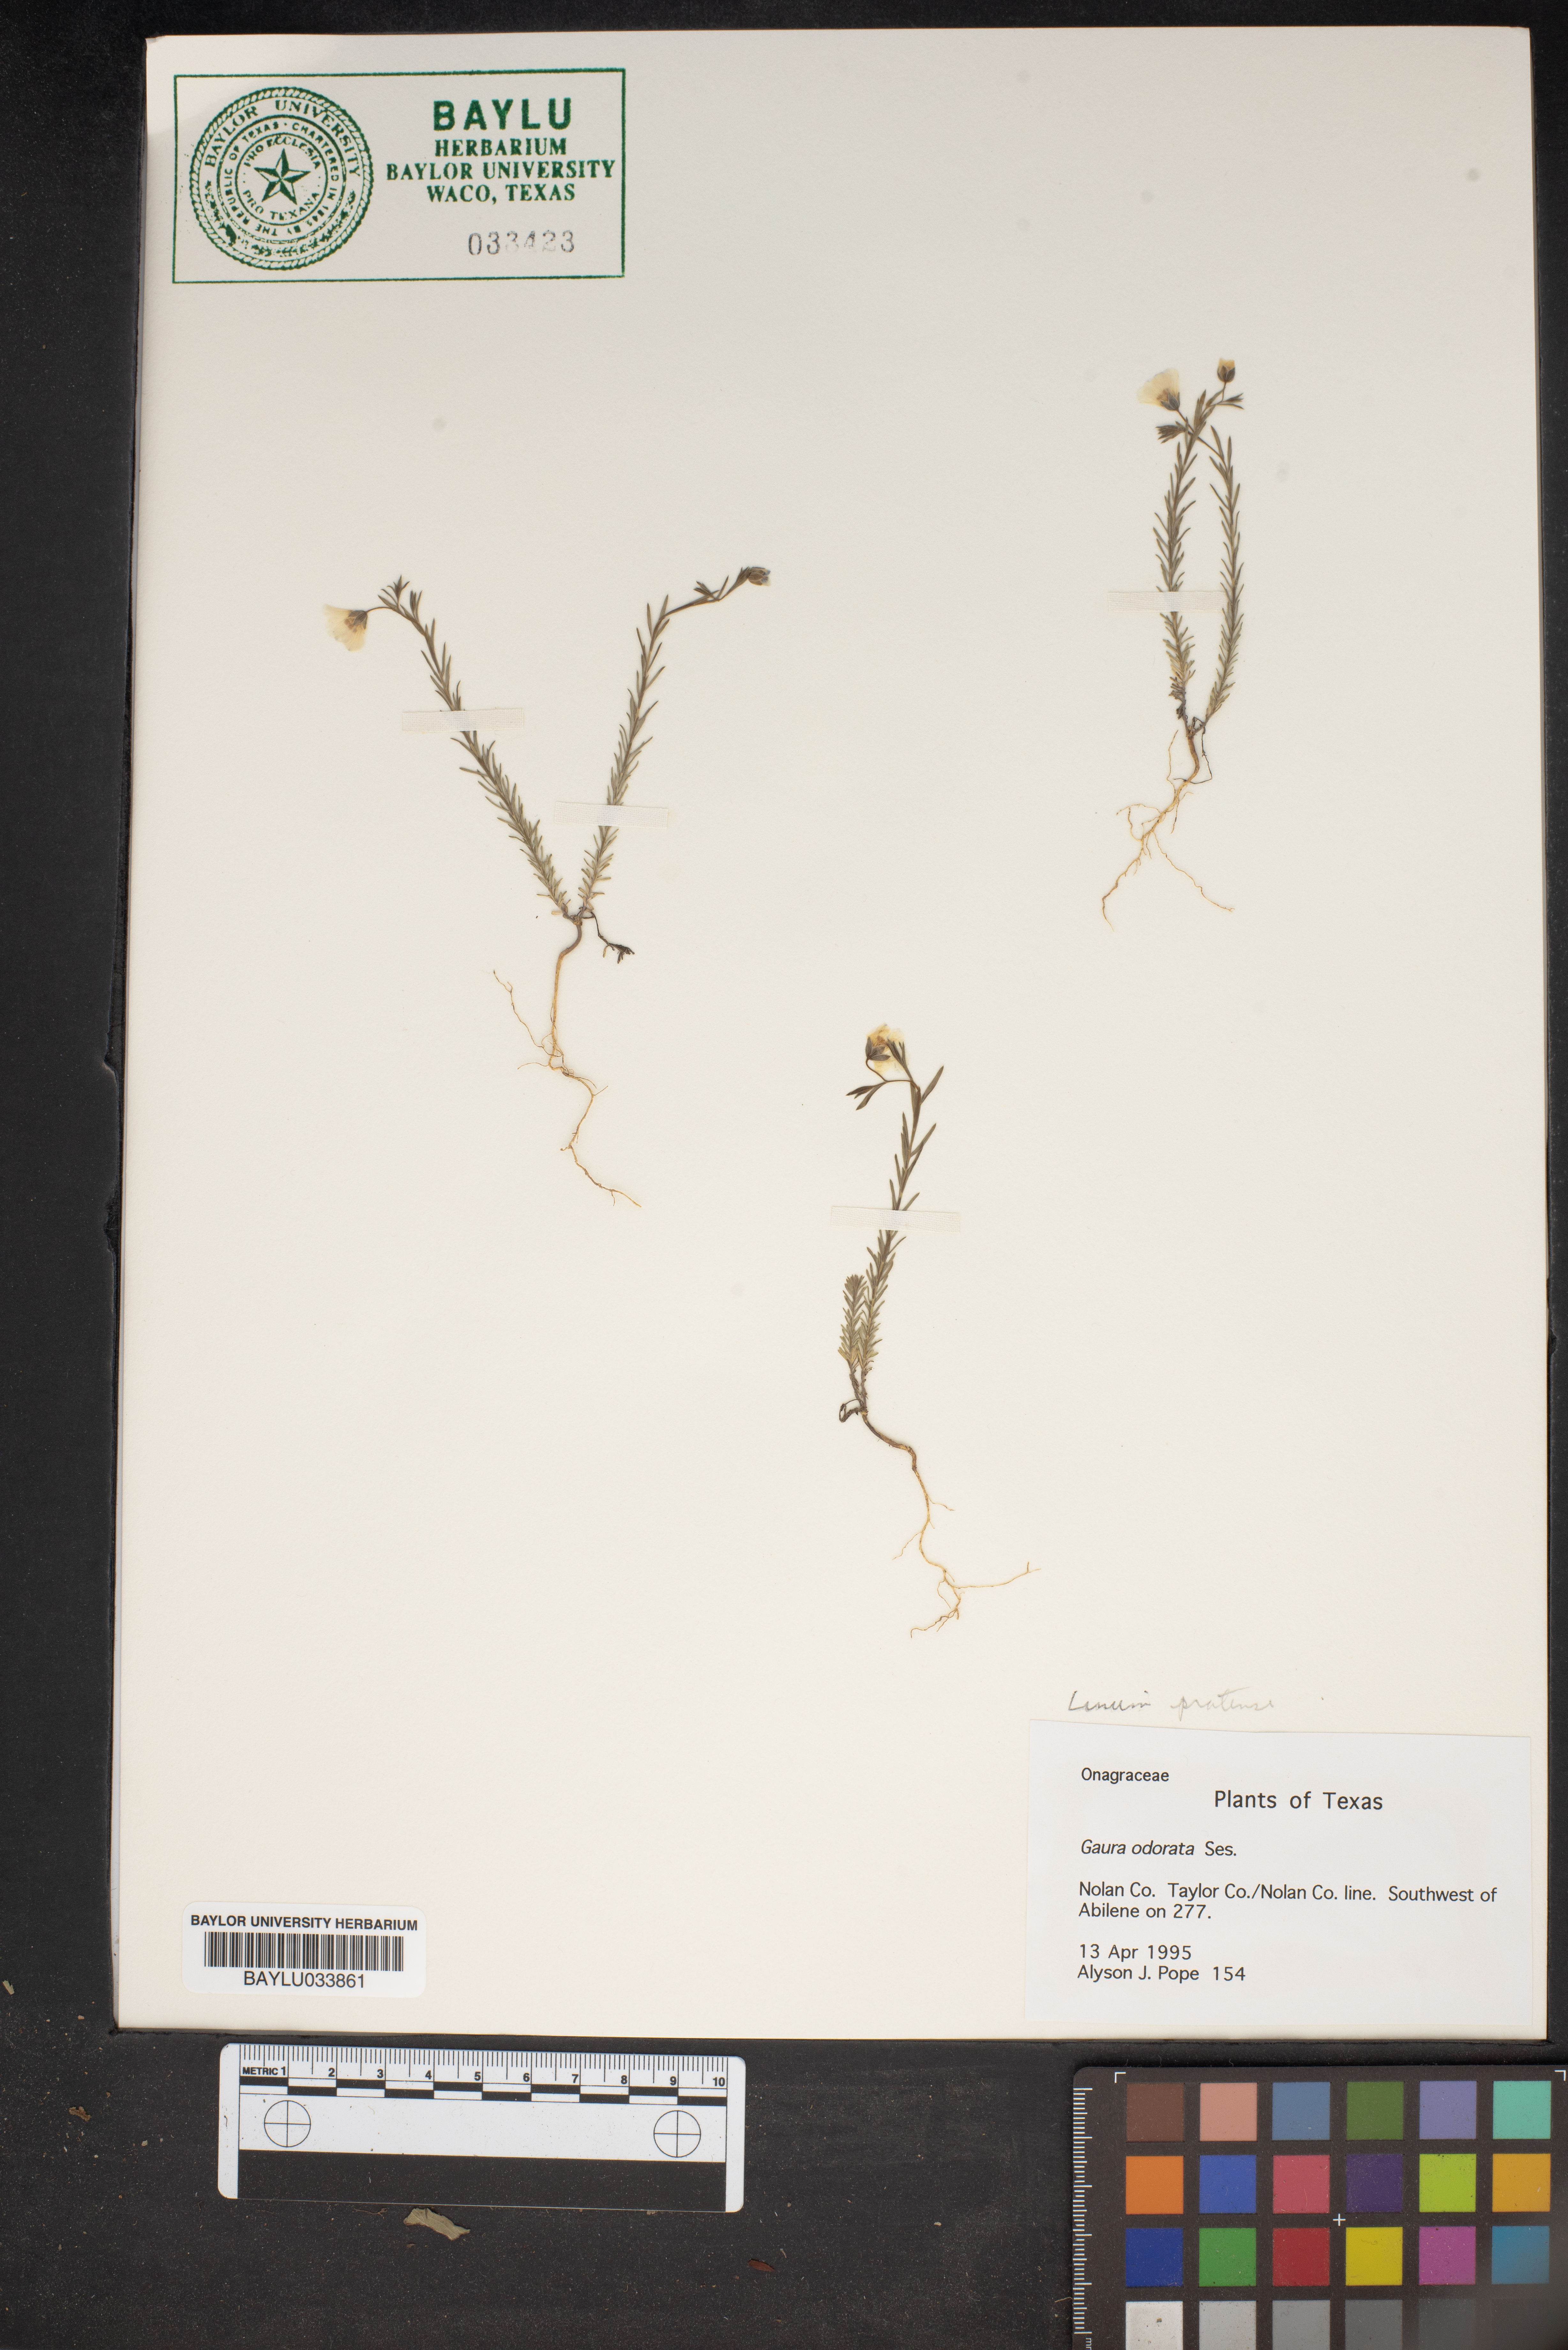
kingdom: Plantae
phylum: Tracheophyta
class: Magnoliopsida
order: Myrtales
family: Onagraceae
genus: Oenothera
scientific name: Oenothera
